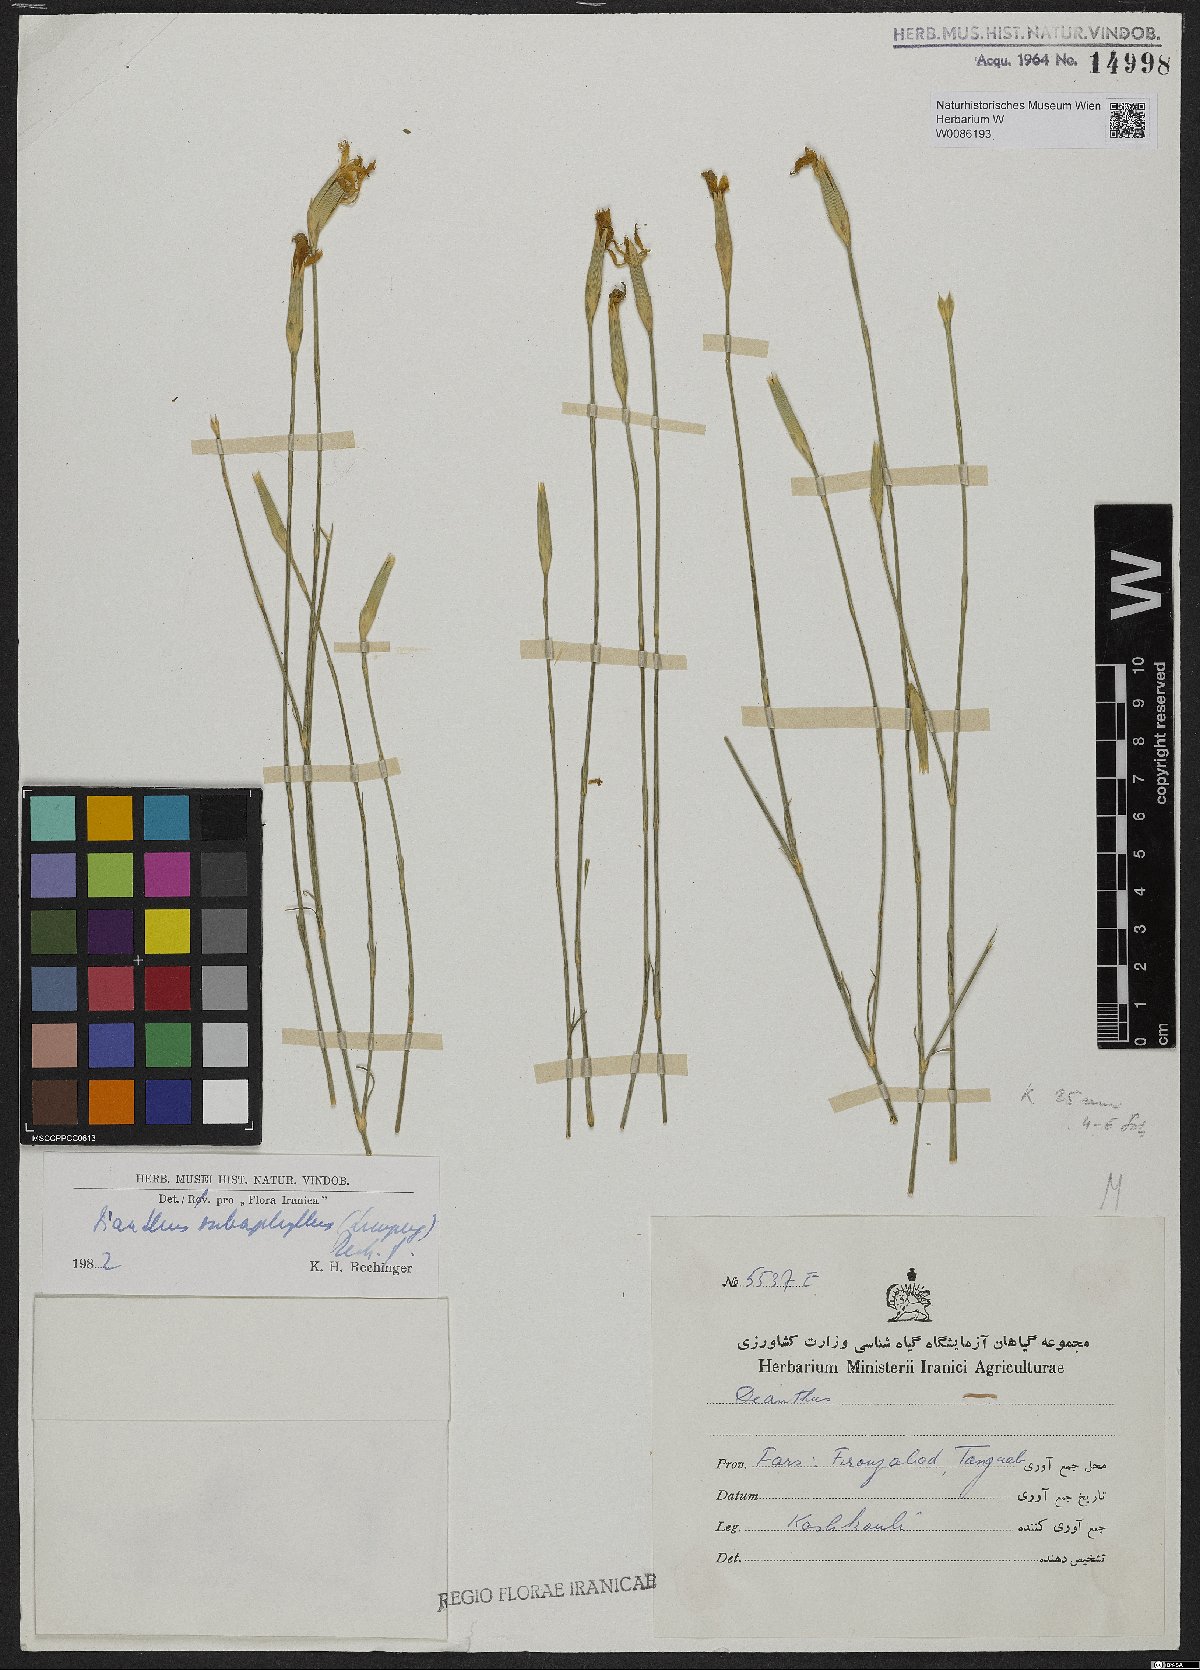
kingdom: Plantae
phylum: Tracheophyta
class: Magnoliopsida
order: Caryophyllales
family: Caryophyllaceae
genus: Dianthus
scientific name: Dianthus subaphyllus
